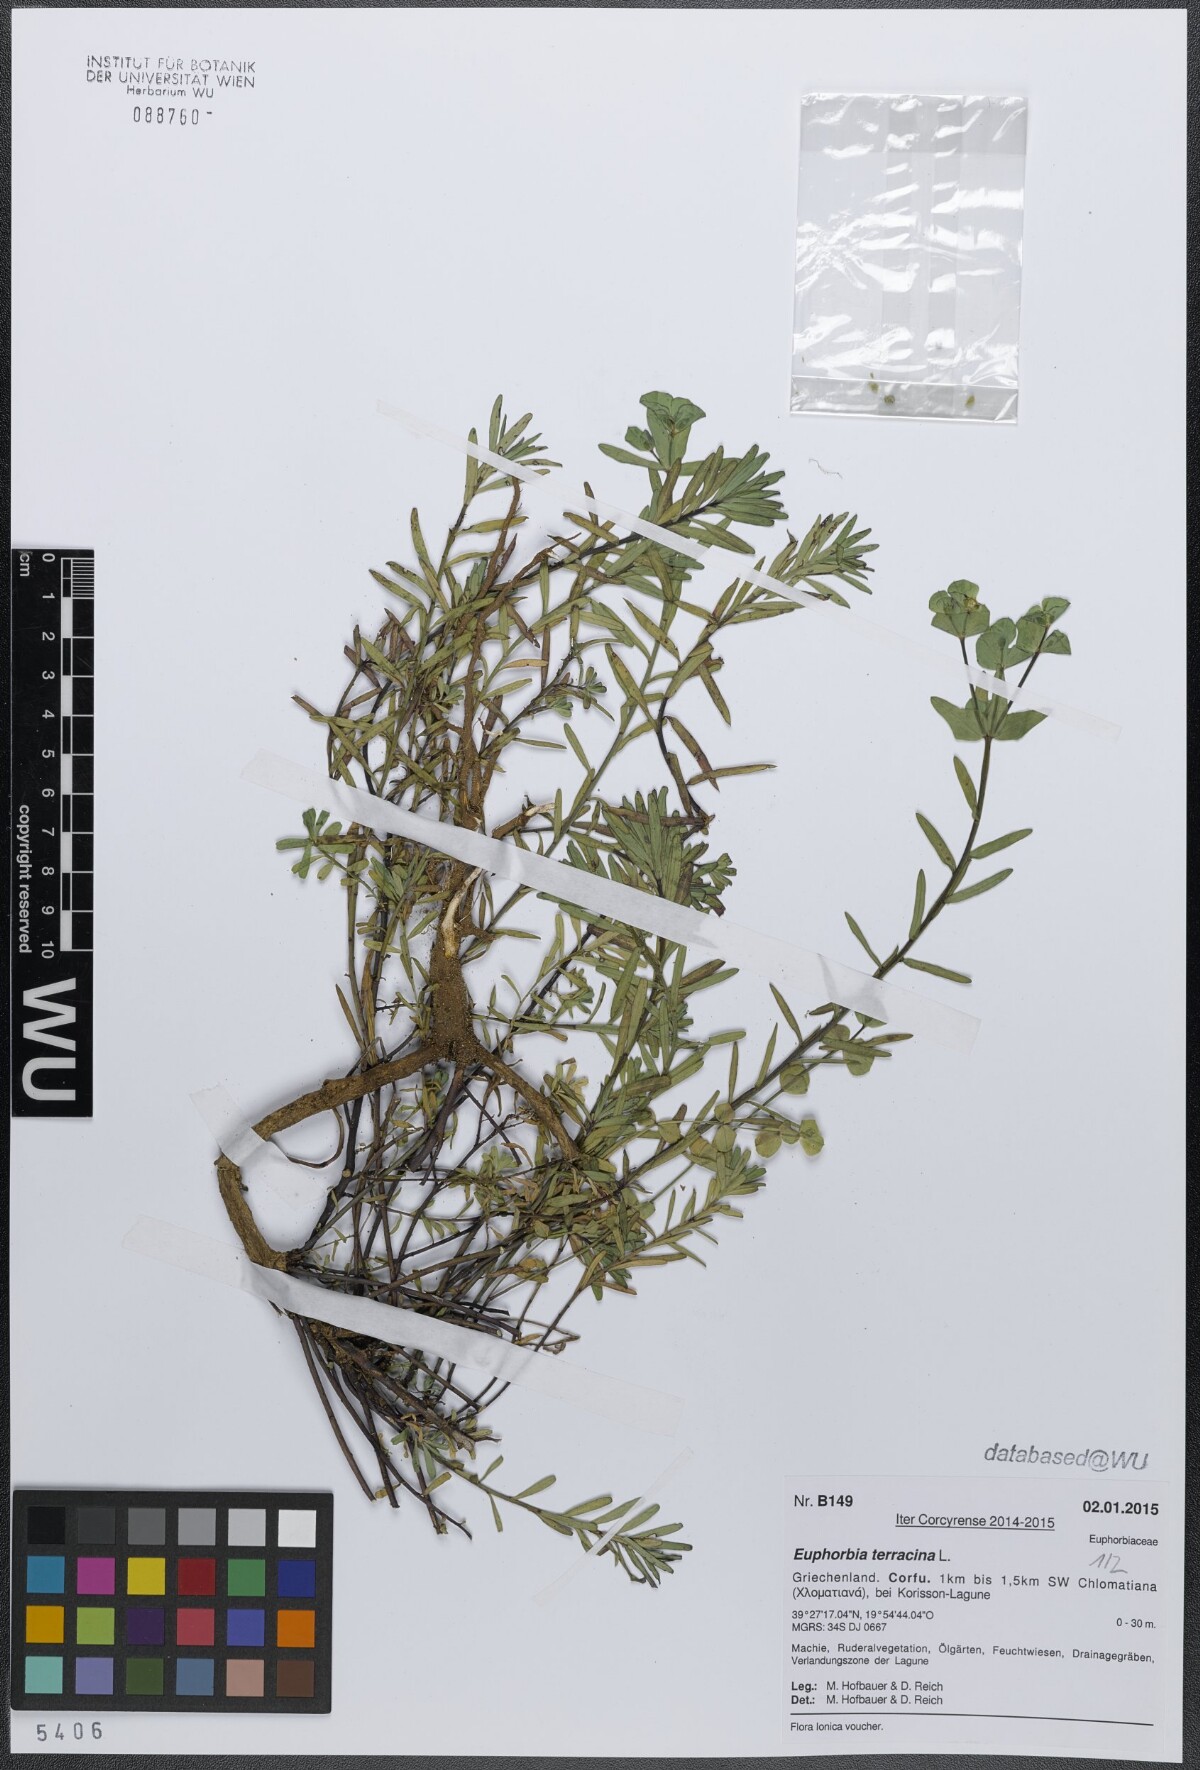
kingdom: Plantae
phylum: Tracheophyta
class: Magnoliopsida
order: Malpighiales
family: Euphorbiaceae
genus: Euphorbia
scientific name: Euphorbia terracina
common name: Geraldton carnation weed
